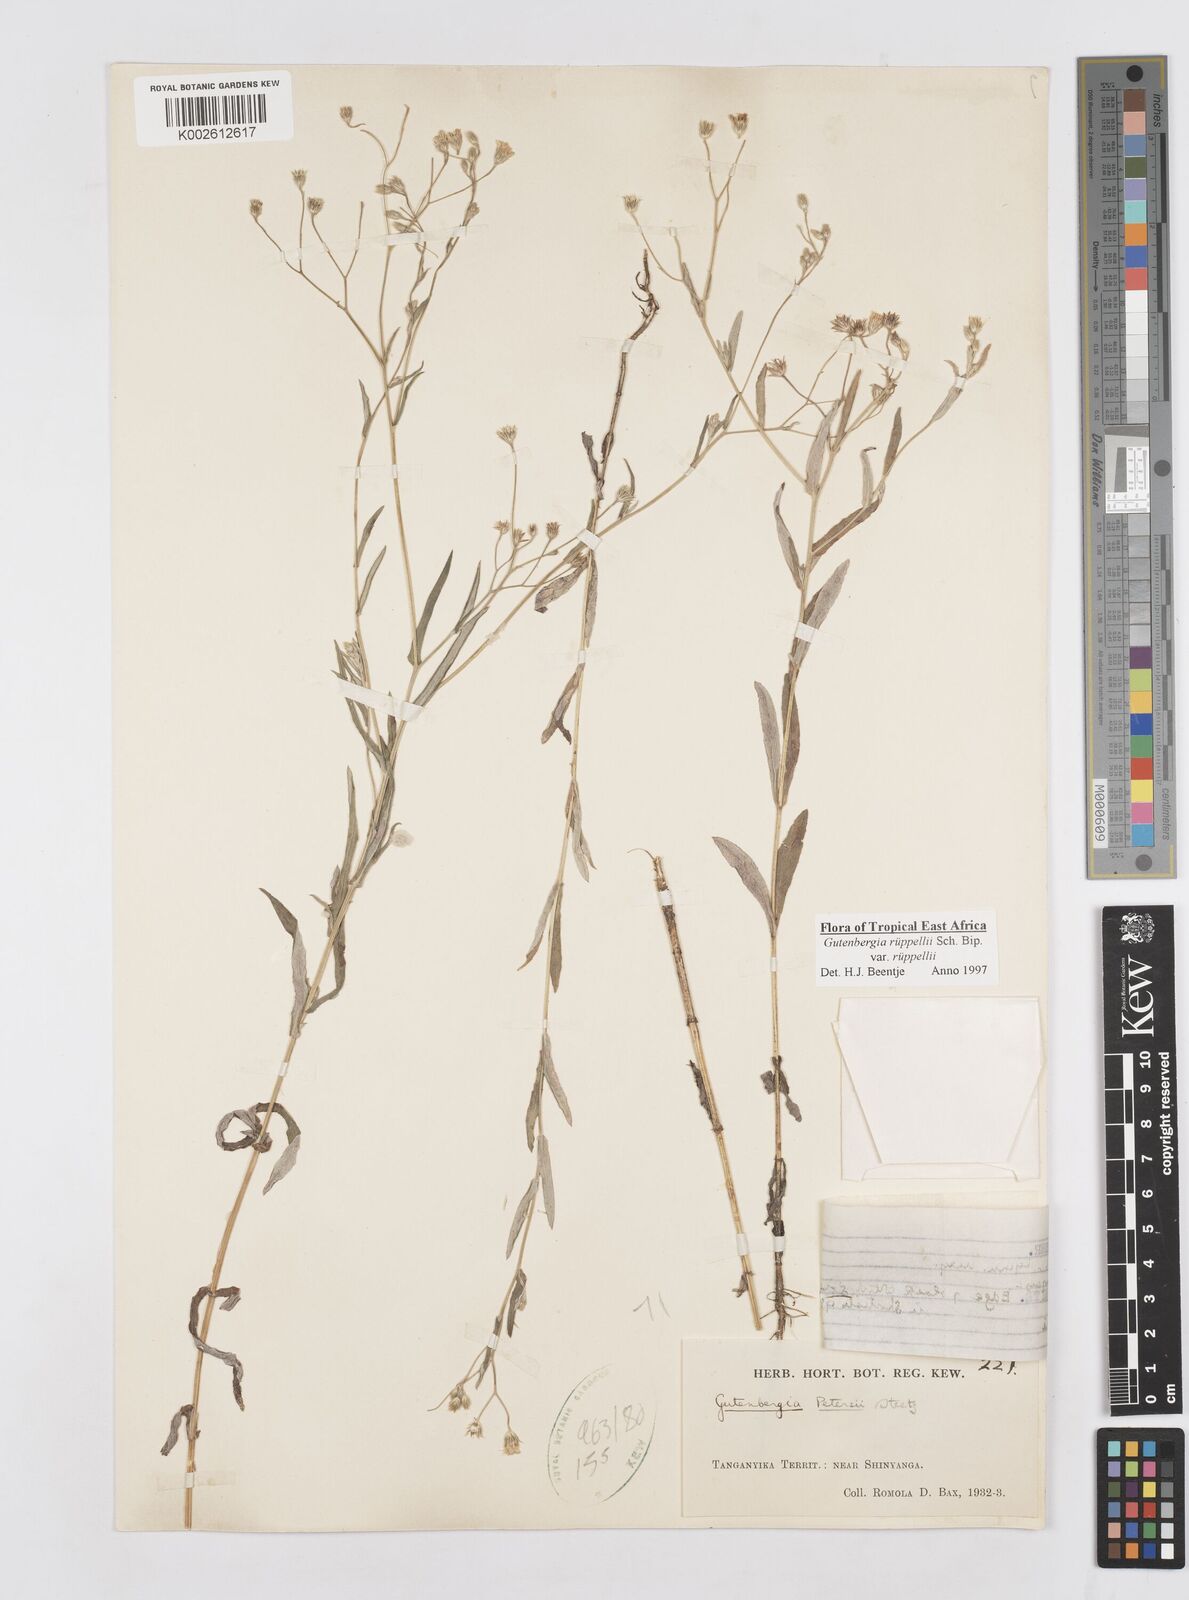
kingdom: Plantae
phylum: Tracheophyta
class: Magnoliopsida
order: Asterales
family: Asteraceae
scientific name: Asteraceae
